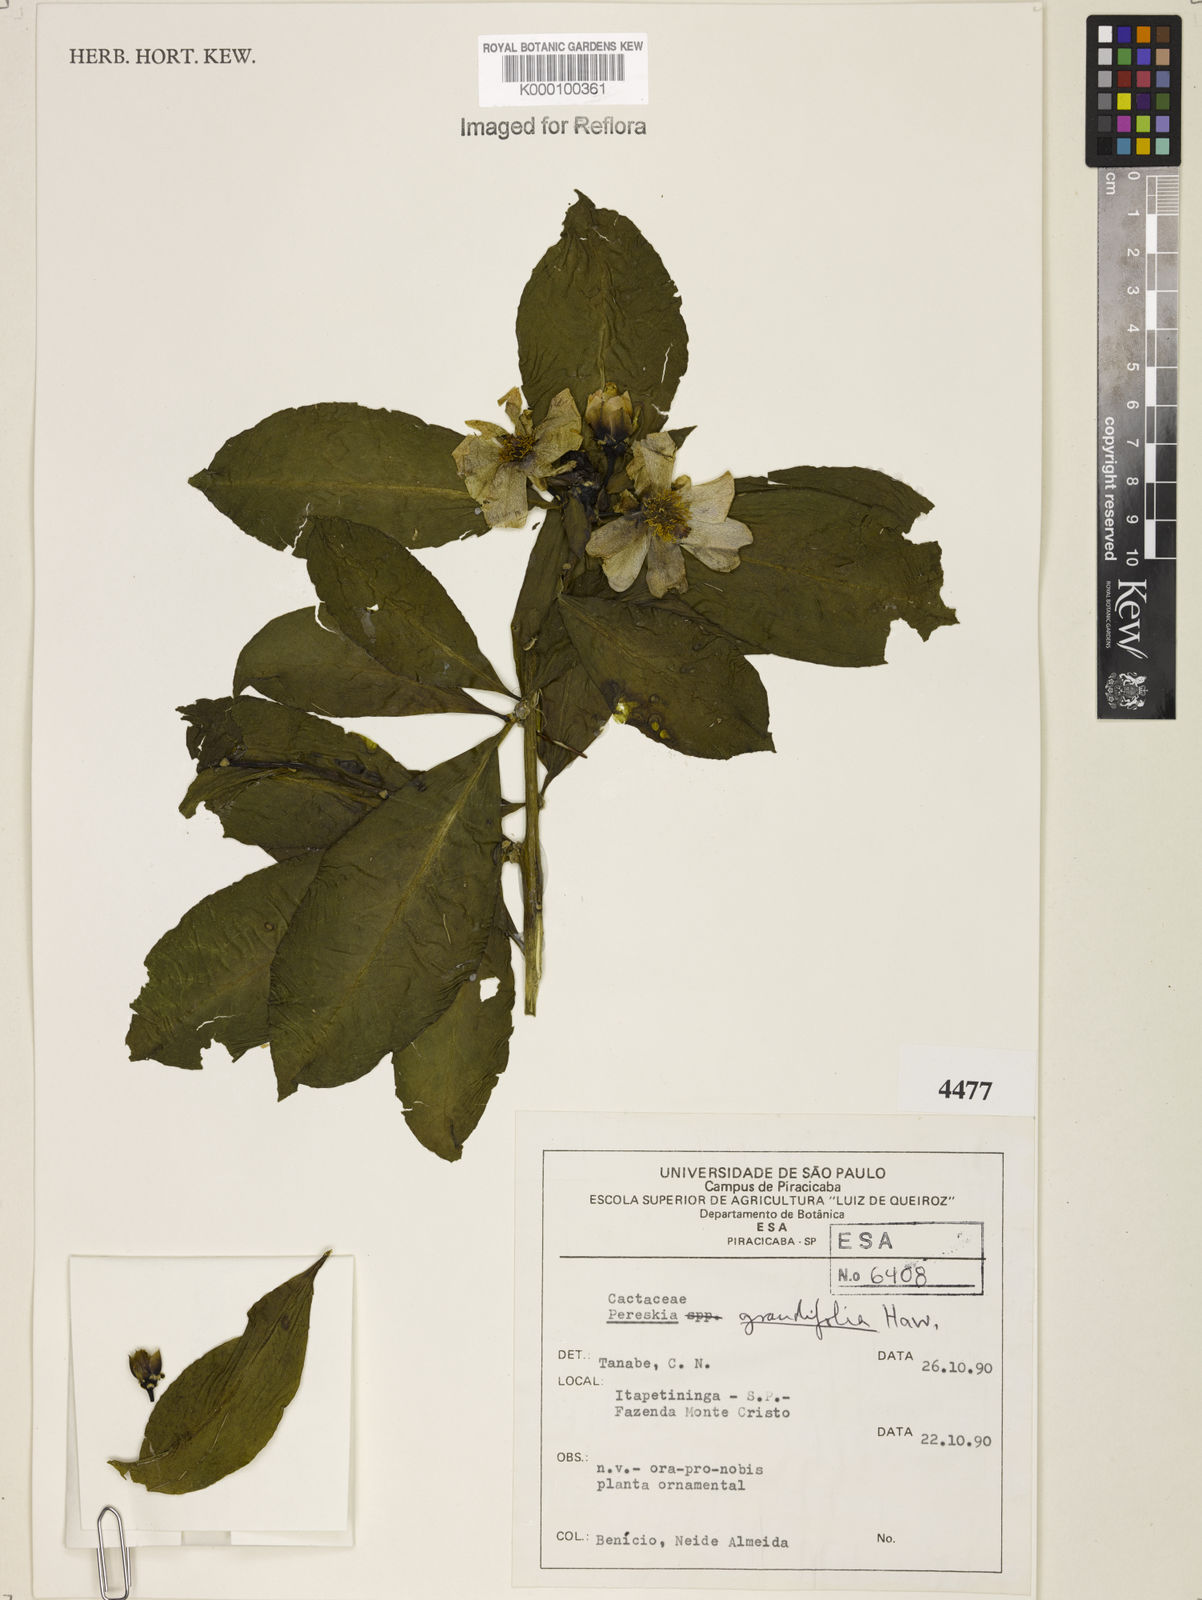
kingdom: Plantae
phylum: Tracheophyta
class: Magnoliopsida
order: Caryophyllales
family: Cactaceae
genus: Pereskia
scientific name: Pereskia grandifolia
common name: Rose cactus
